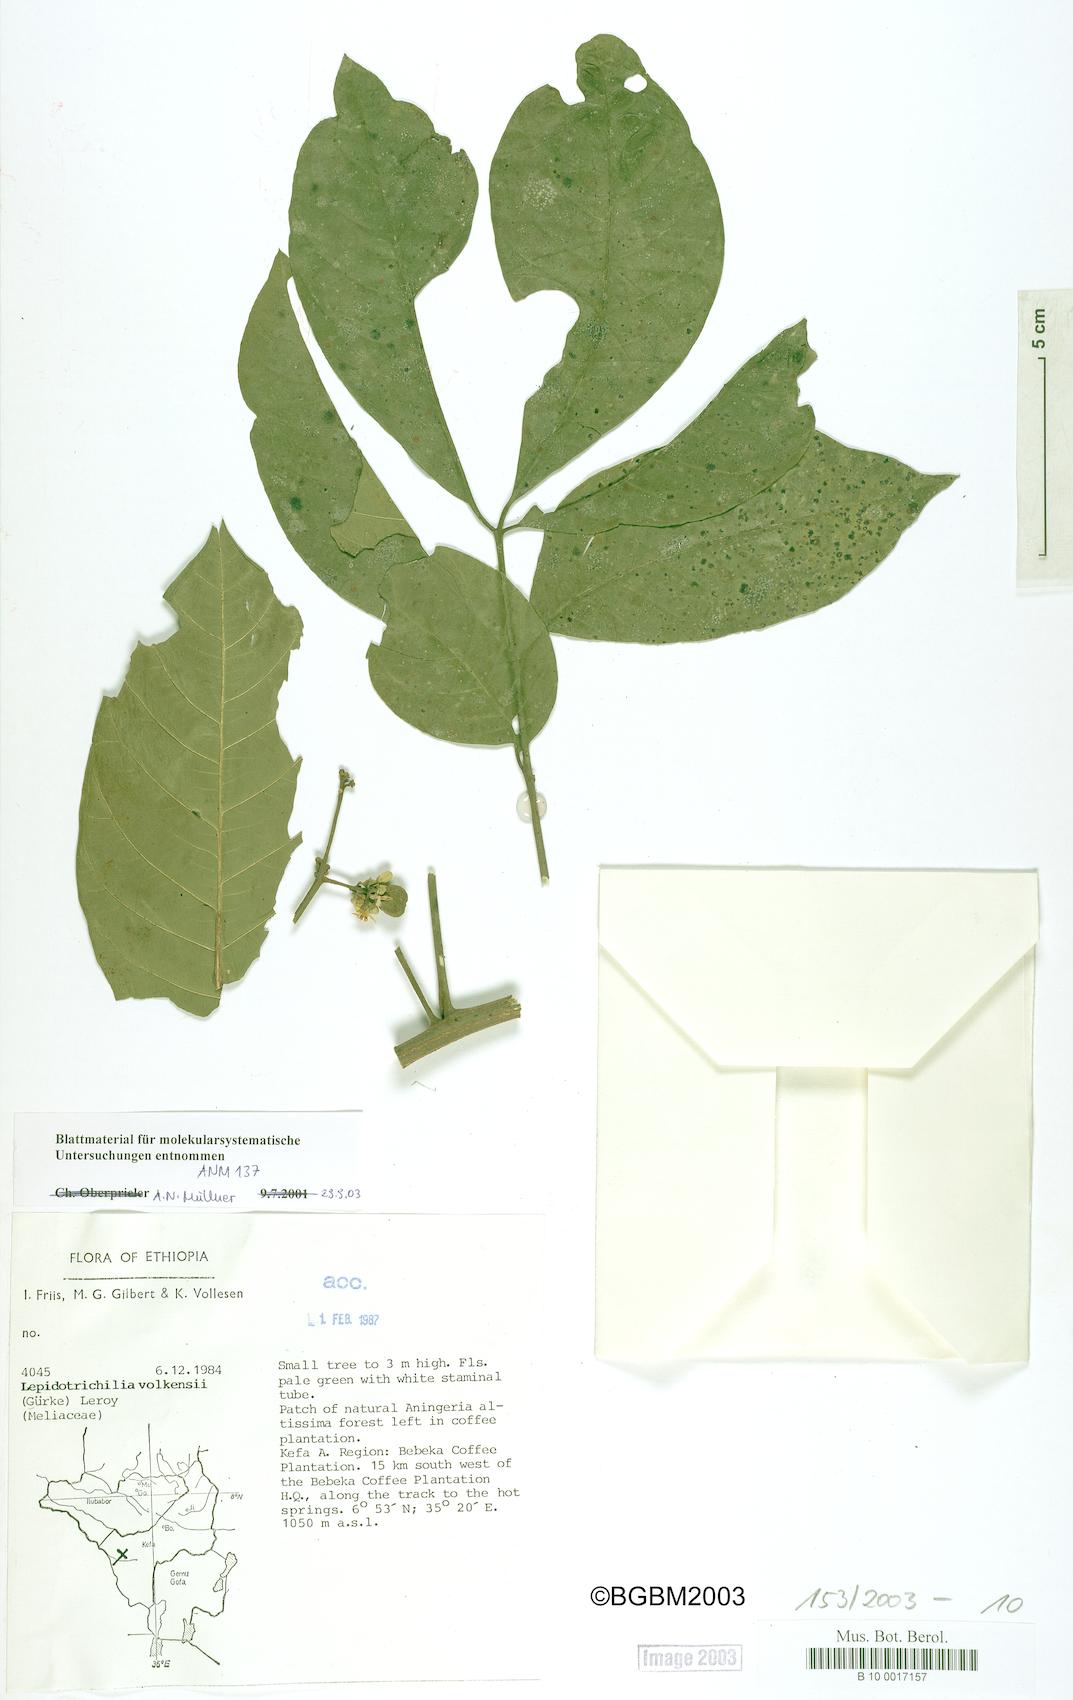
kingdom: Plantae
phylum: Tracheophyta
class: Magnoliopsida
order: Sapindales
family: Meliaceae
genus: Lepidotrichilia
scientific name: Lepidotrichilia volkensii
